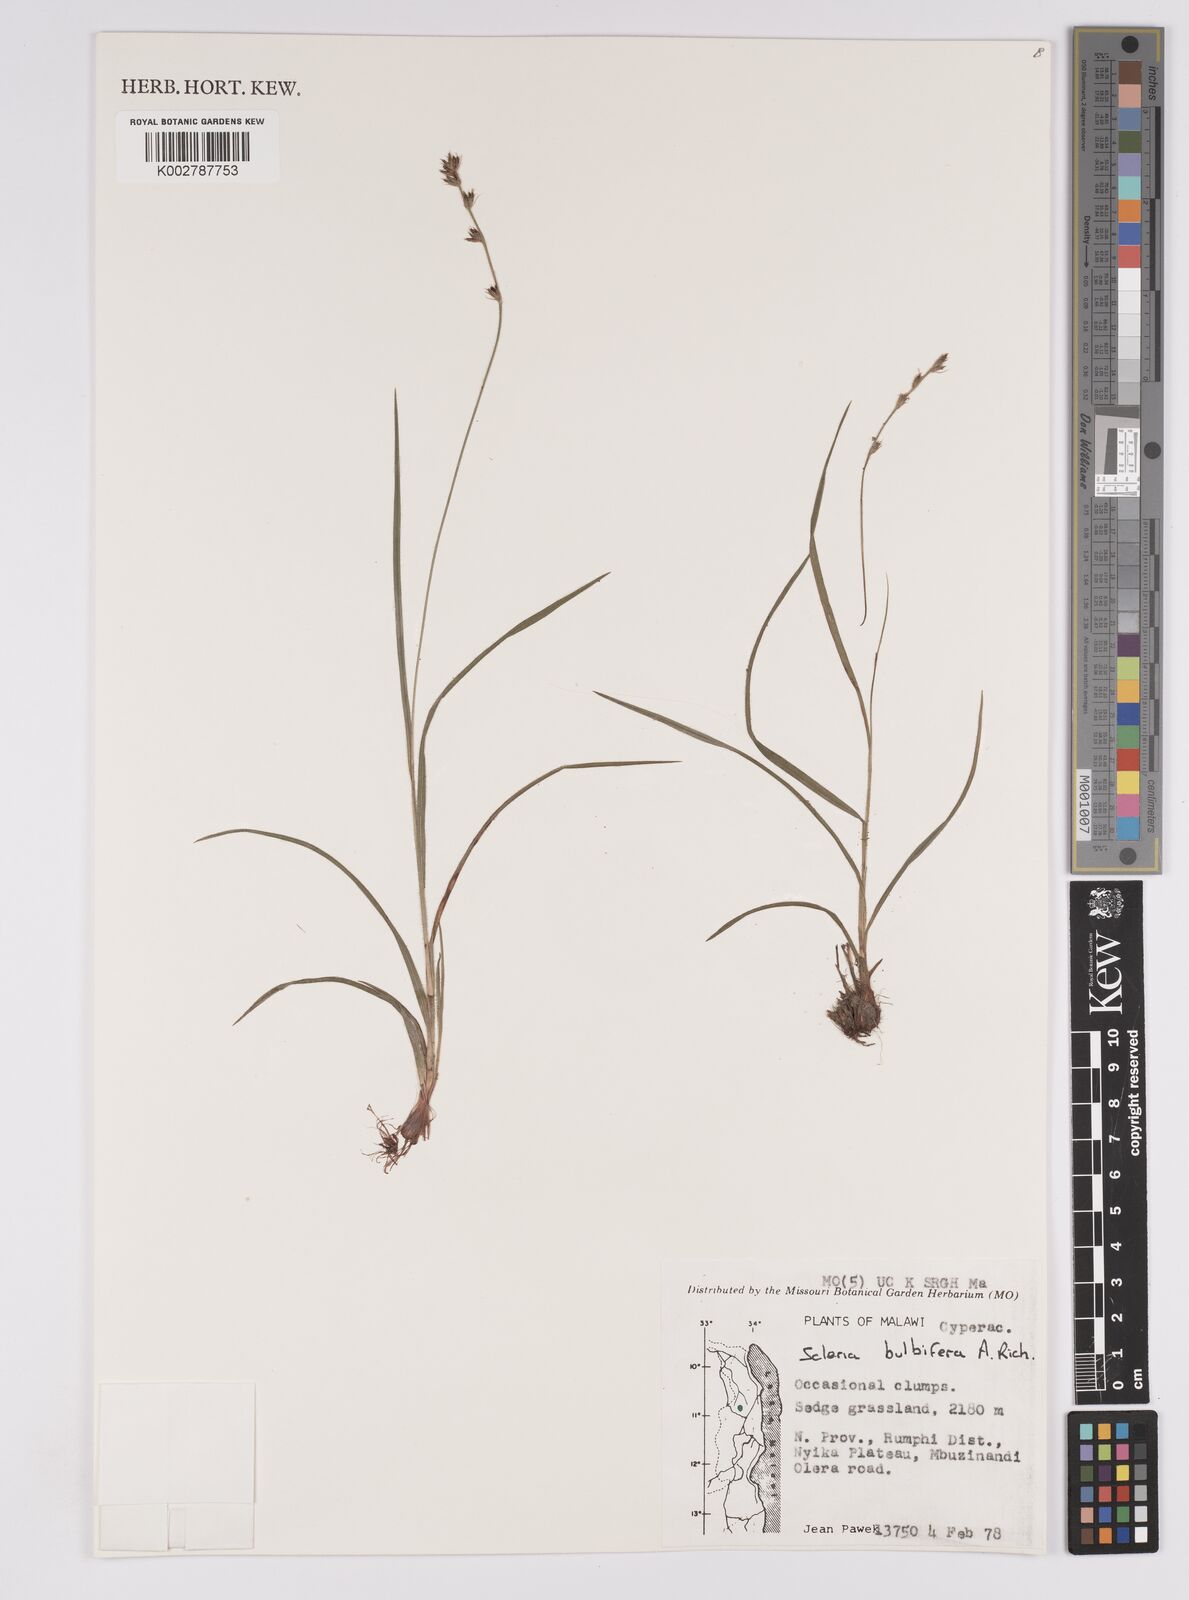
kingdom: Plantae
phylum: Tracheophyta
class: Liliopsida
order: Poales
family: Cyperaceae
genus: Scleria
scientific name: Scleria bulbifera
